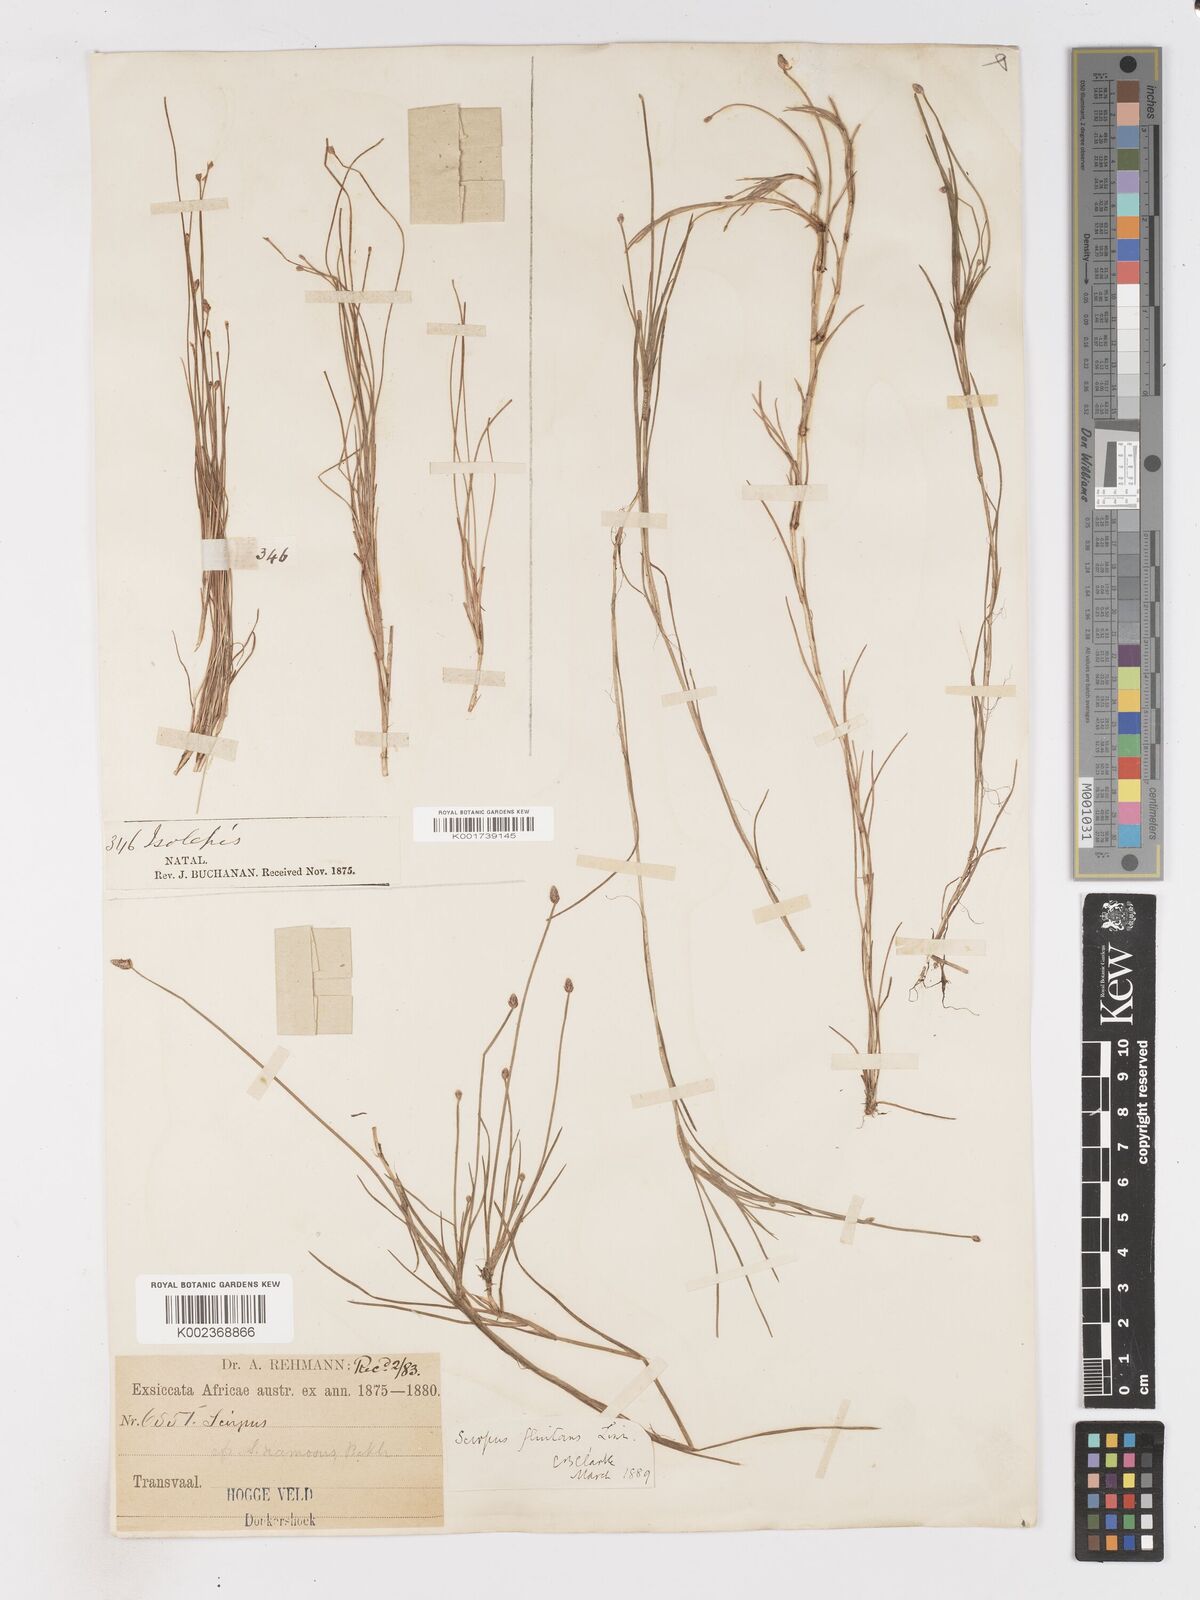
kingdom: Plantae
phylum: Tracheophyta
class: Liliopsida
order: Poales
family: Cyperaceae
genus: Isolepis
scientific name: Isolepis fluitans
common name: Floating club-rush
